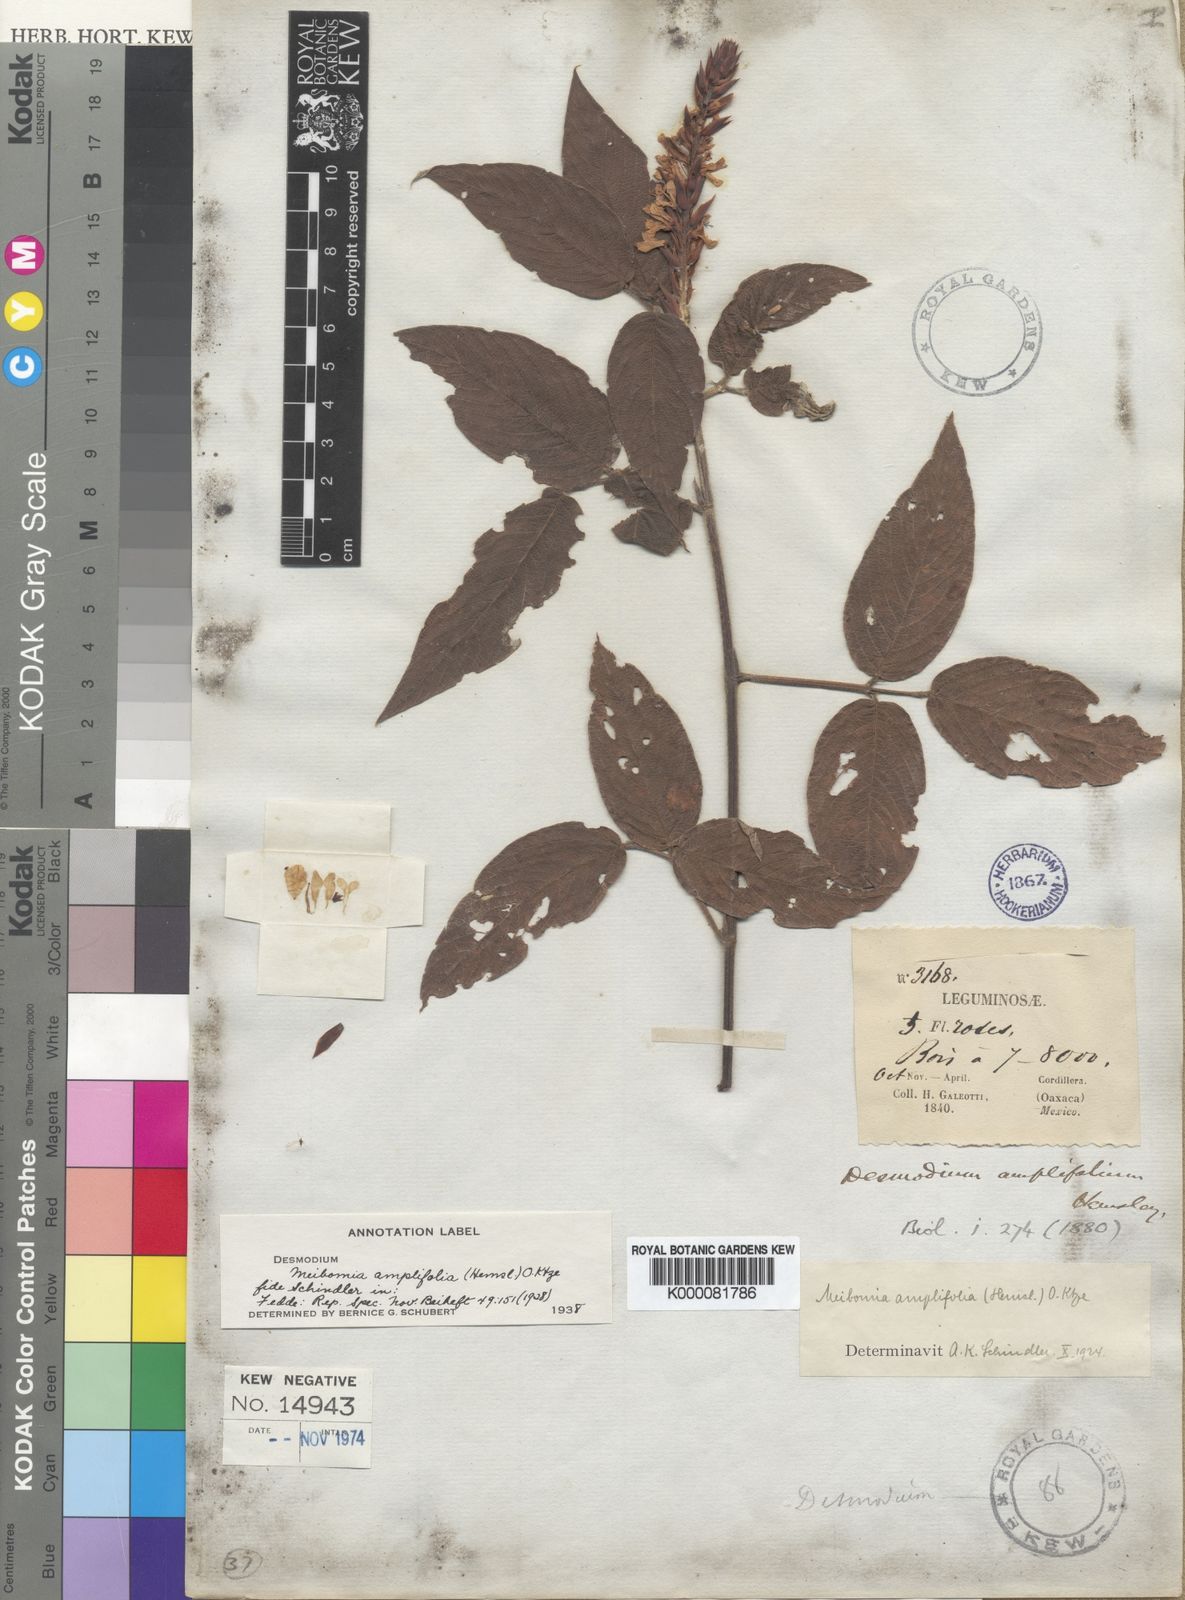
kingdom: Plantae
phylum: Tracheophyta
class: Magnoliopsida
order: Fabales
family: Fabaceae
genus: Desmodium
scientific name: Desmodium amplifolium
